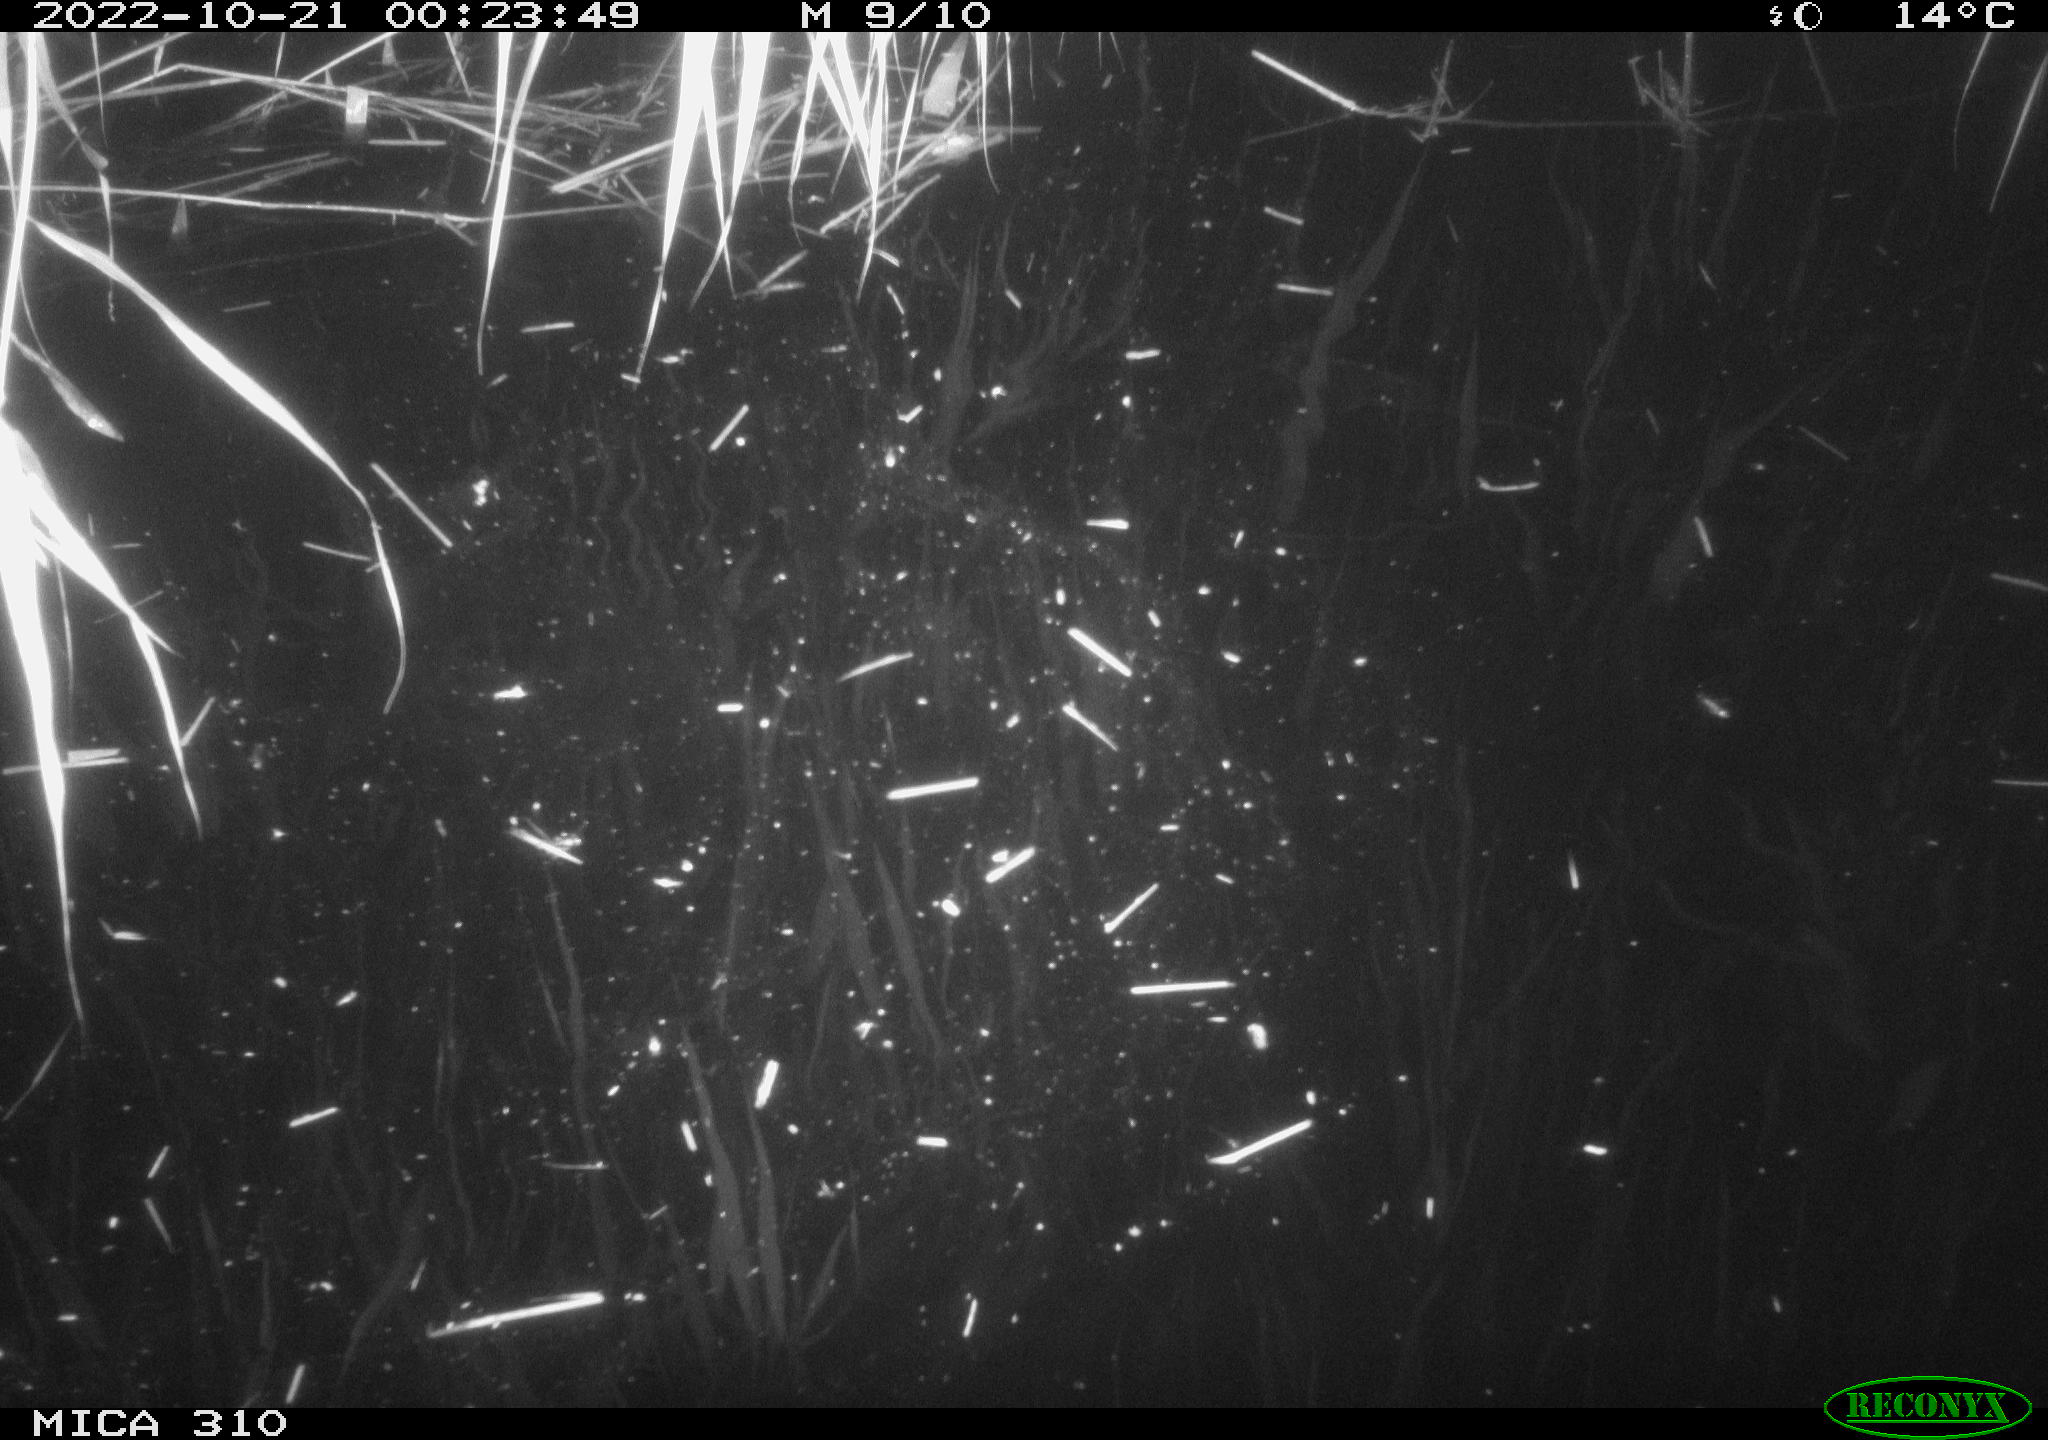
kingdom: Animalia
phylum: Chordata
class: Mammalia
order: Rodentia
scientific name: Rodentia
